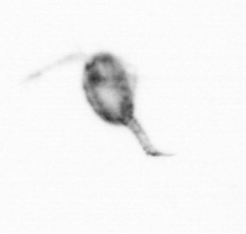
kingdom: Animalia
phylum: Arthropoda
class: Copepoda
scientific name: Copepoda
